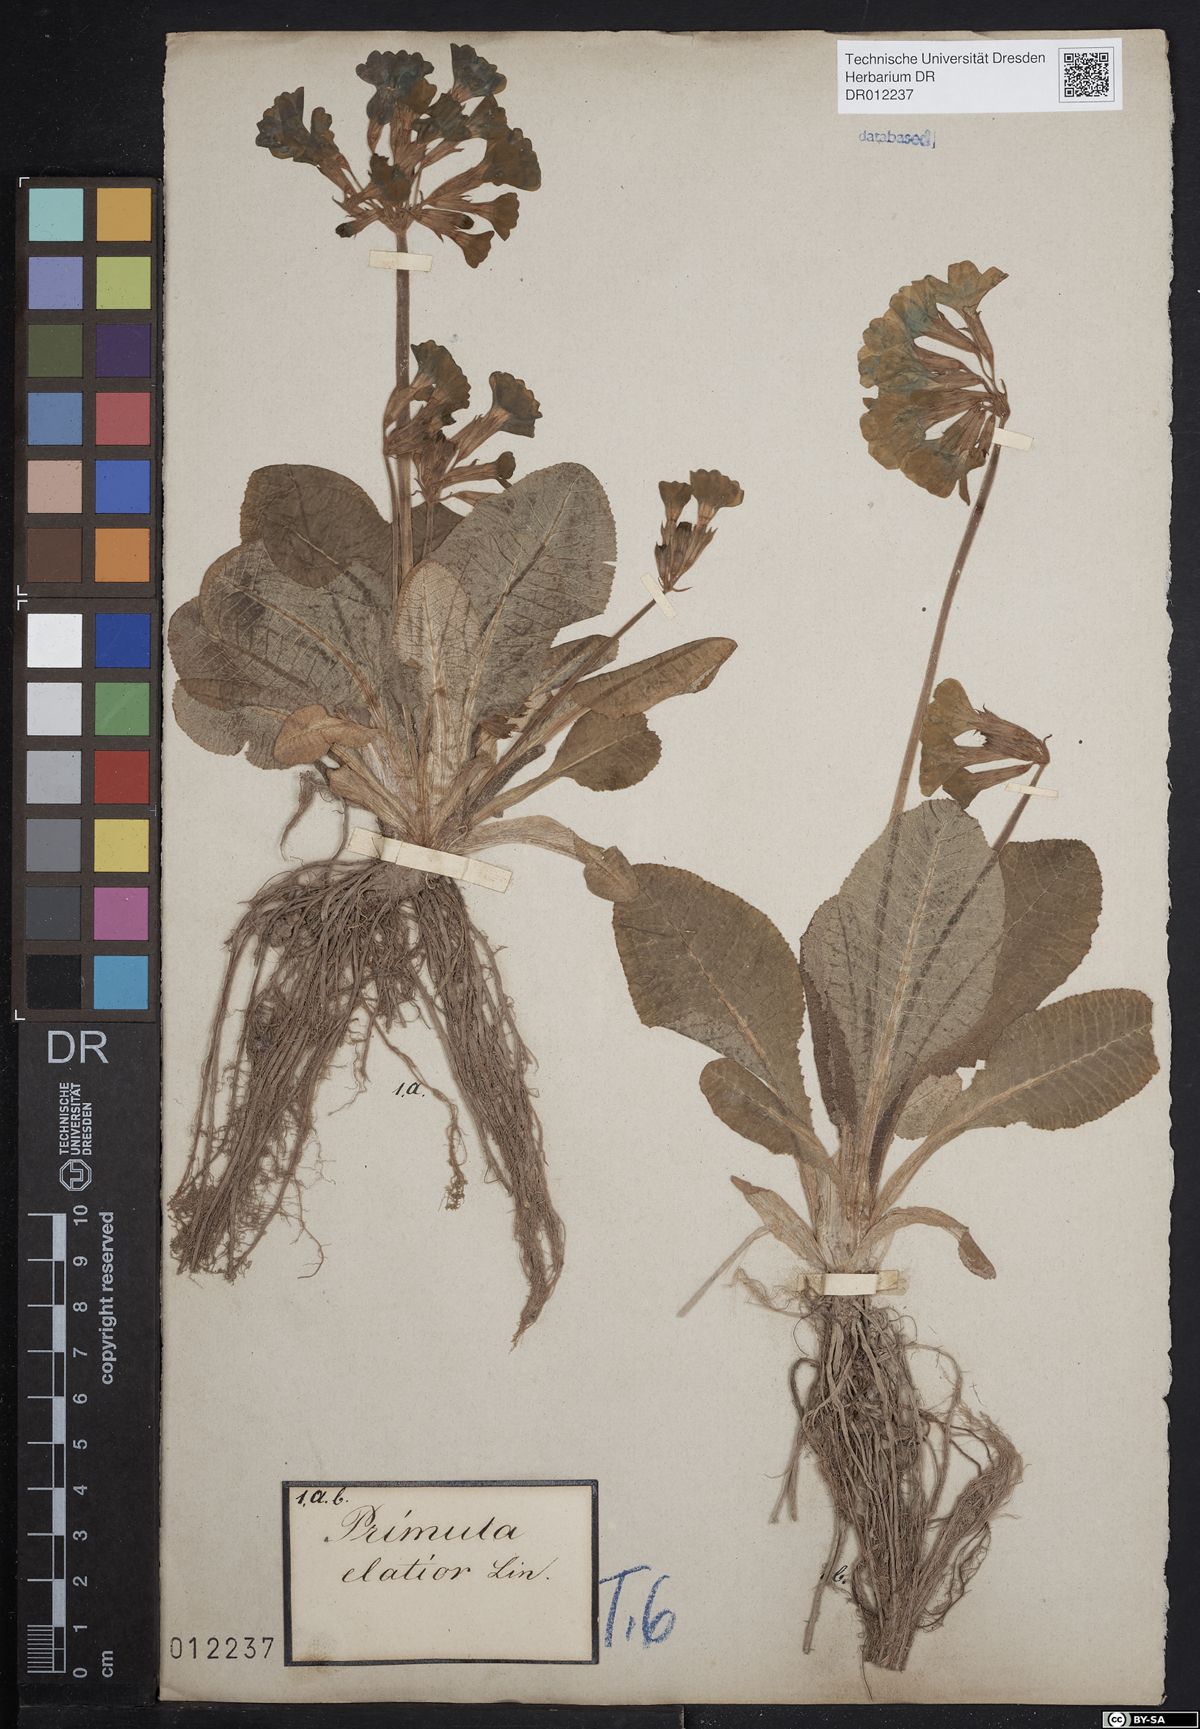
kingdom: Plantae
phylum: Tracheophyta
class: Magnoliopsida
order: Ericales
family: Primulaceae
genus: Primula
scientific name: Primula elatior
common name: Oxlip
